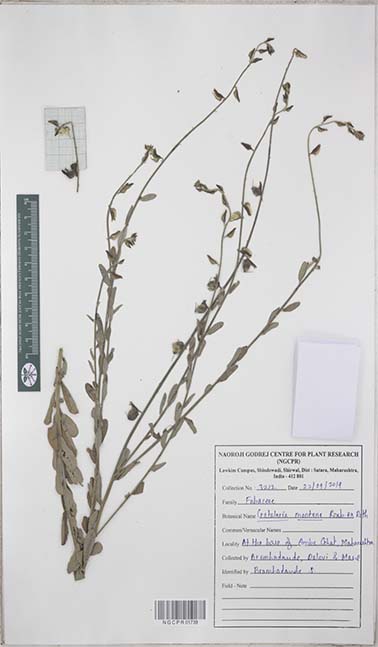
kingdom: Plantae
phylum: Tracheophyta
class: Magnoliopsida
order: Fabales
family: Fabaceae
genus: Crotalaria
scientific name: Crotalaria montana
